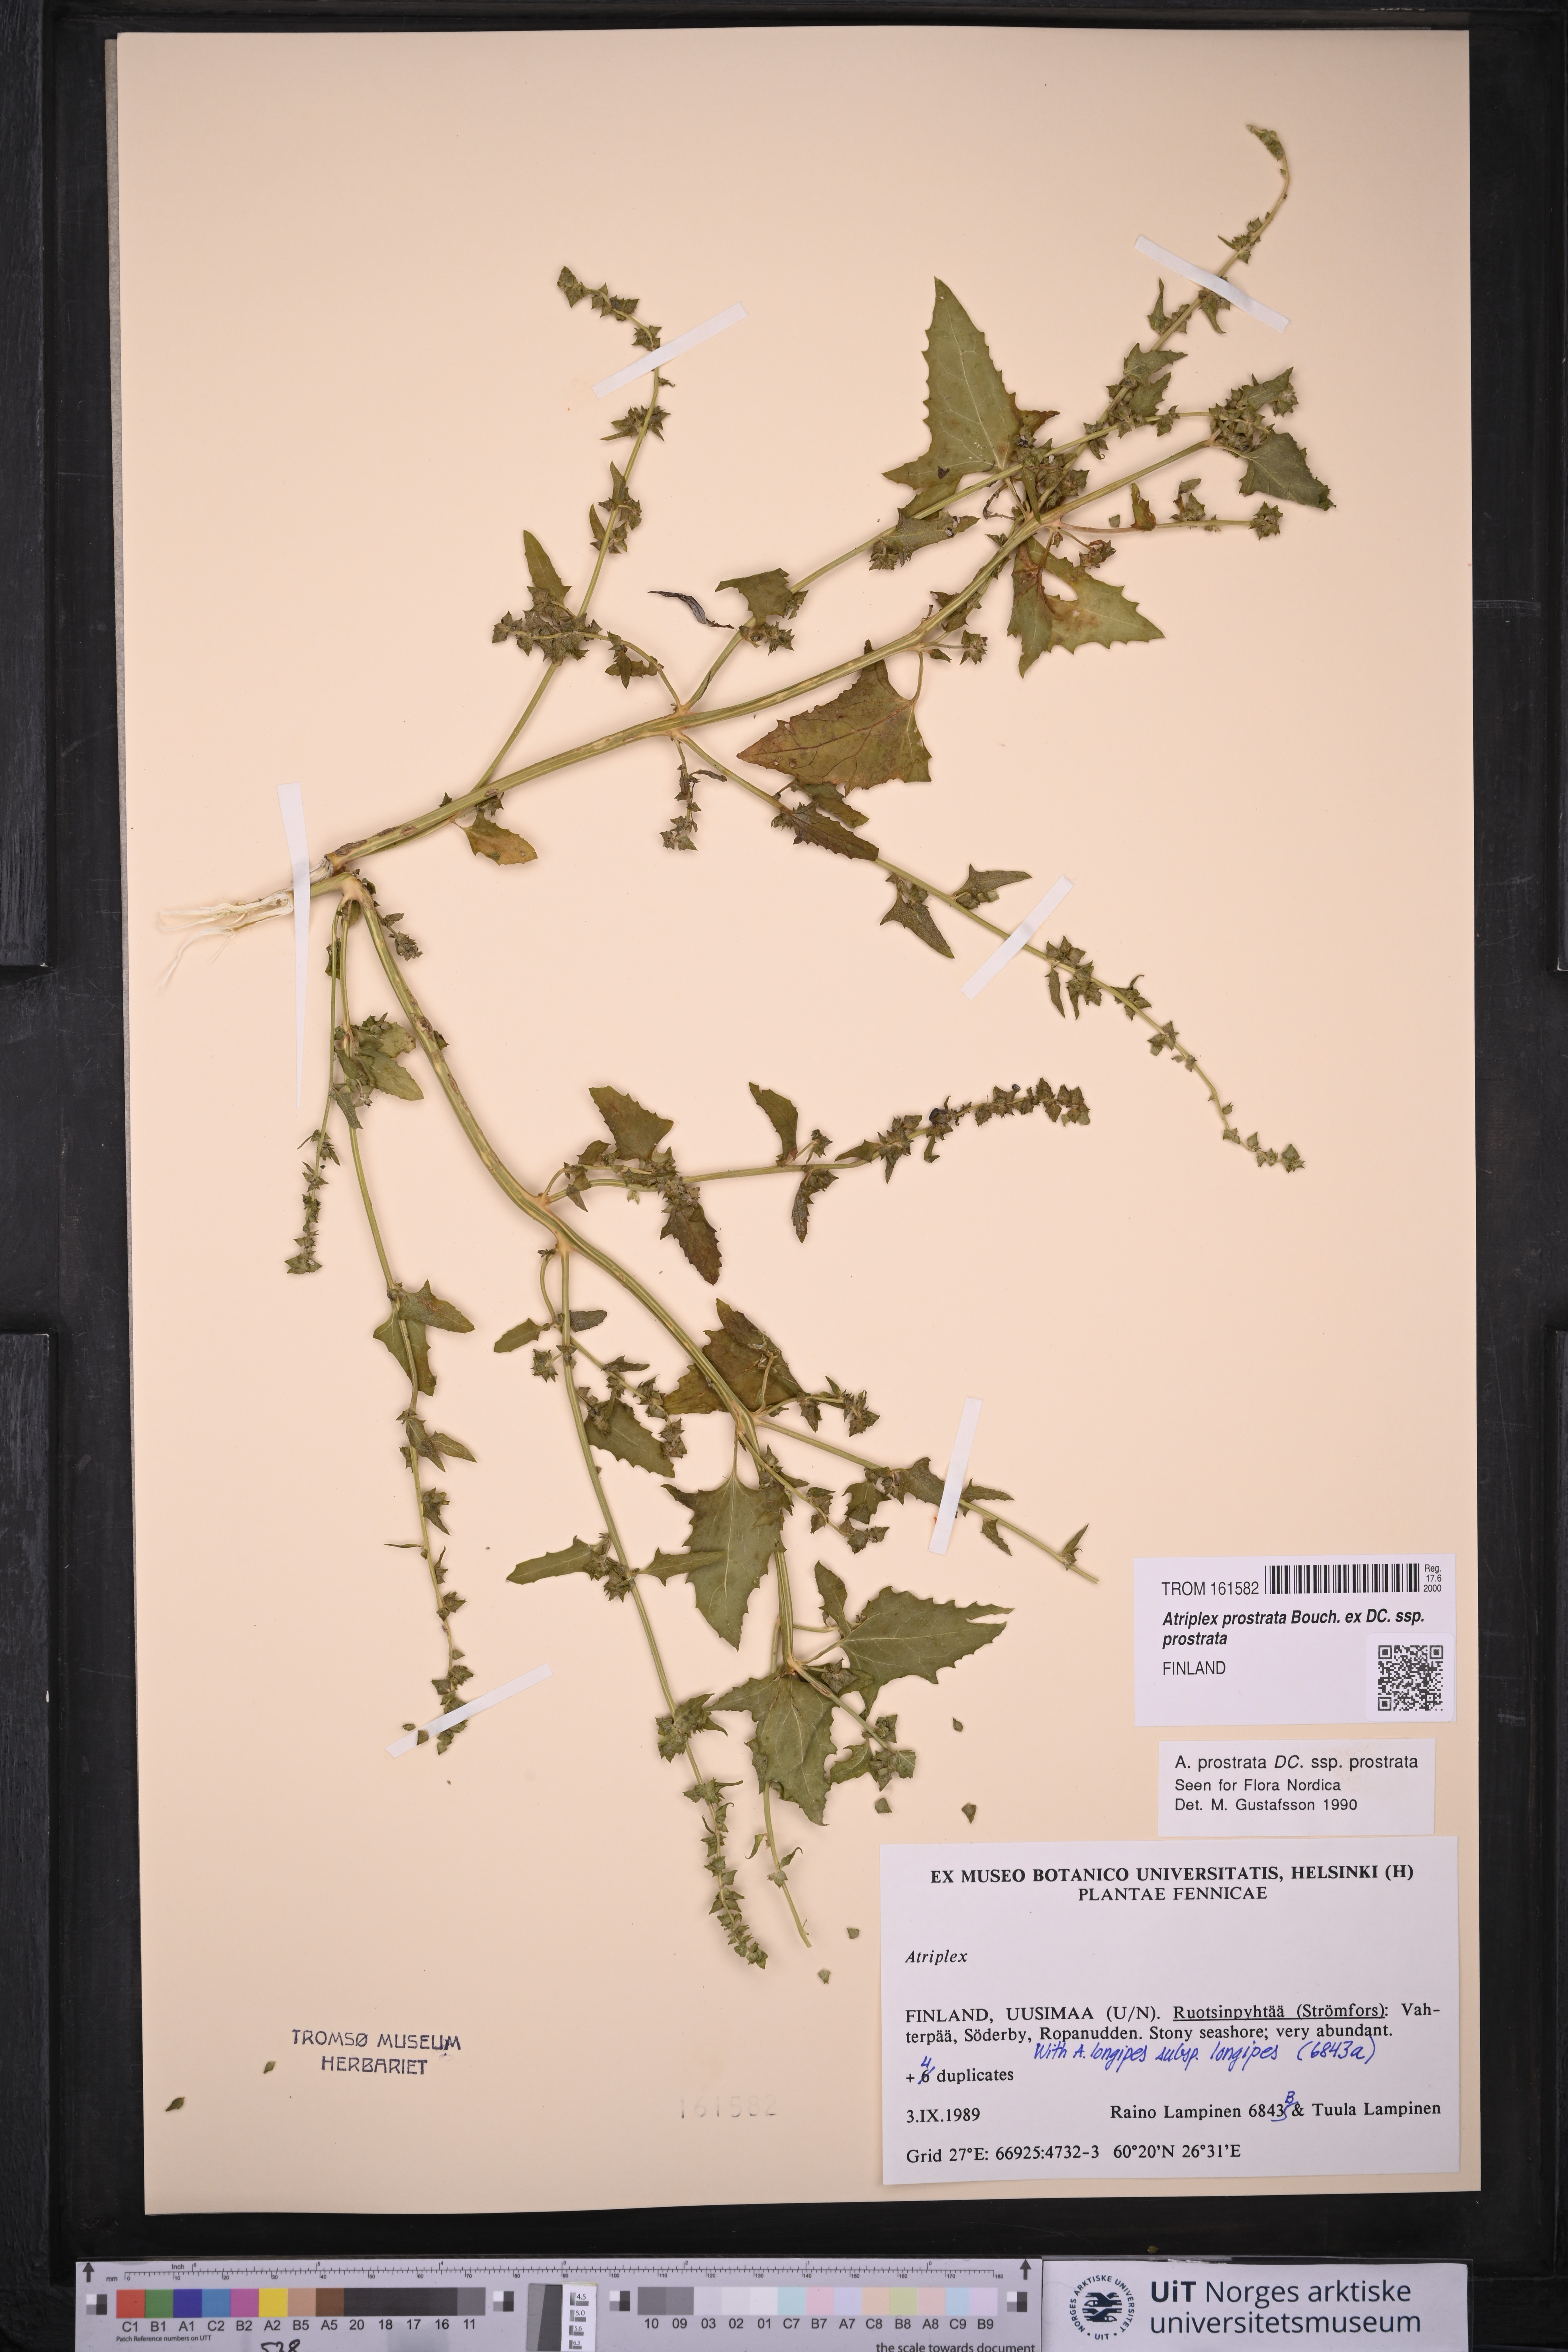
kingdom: Plantae
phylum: Tracheophyta
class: Magnoliopsida
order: Caryophyllales
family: Amaranthaceae
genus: Atriplex
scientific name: Atriplex prostrata
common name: Spear-leaved orache
